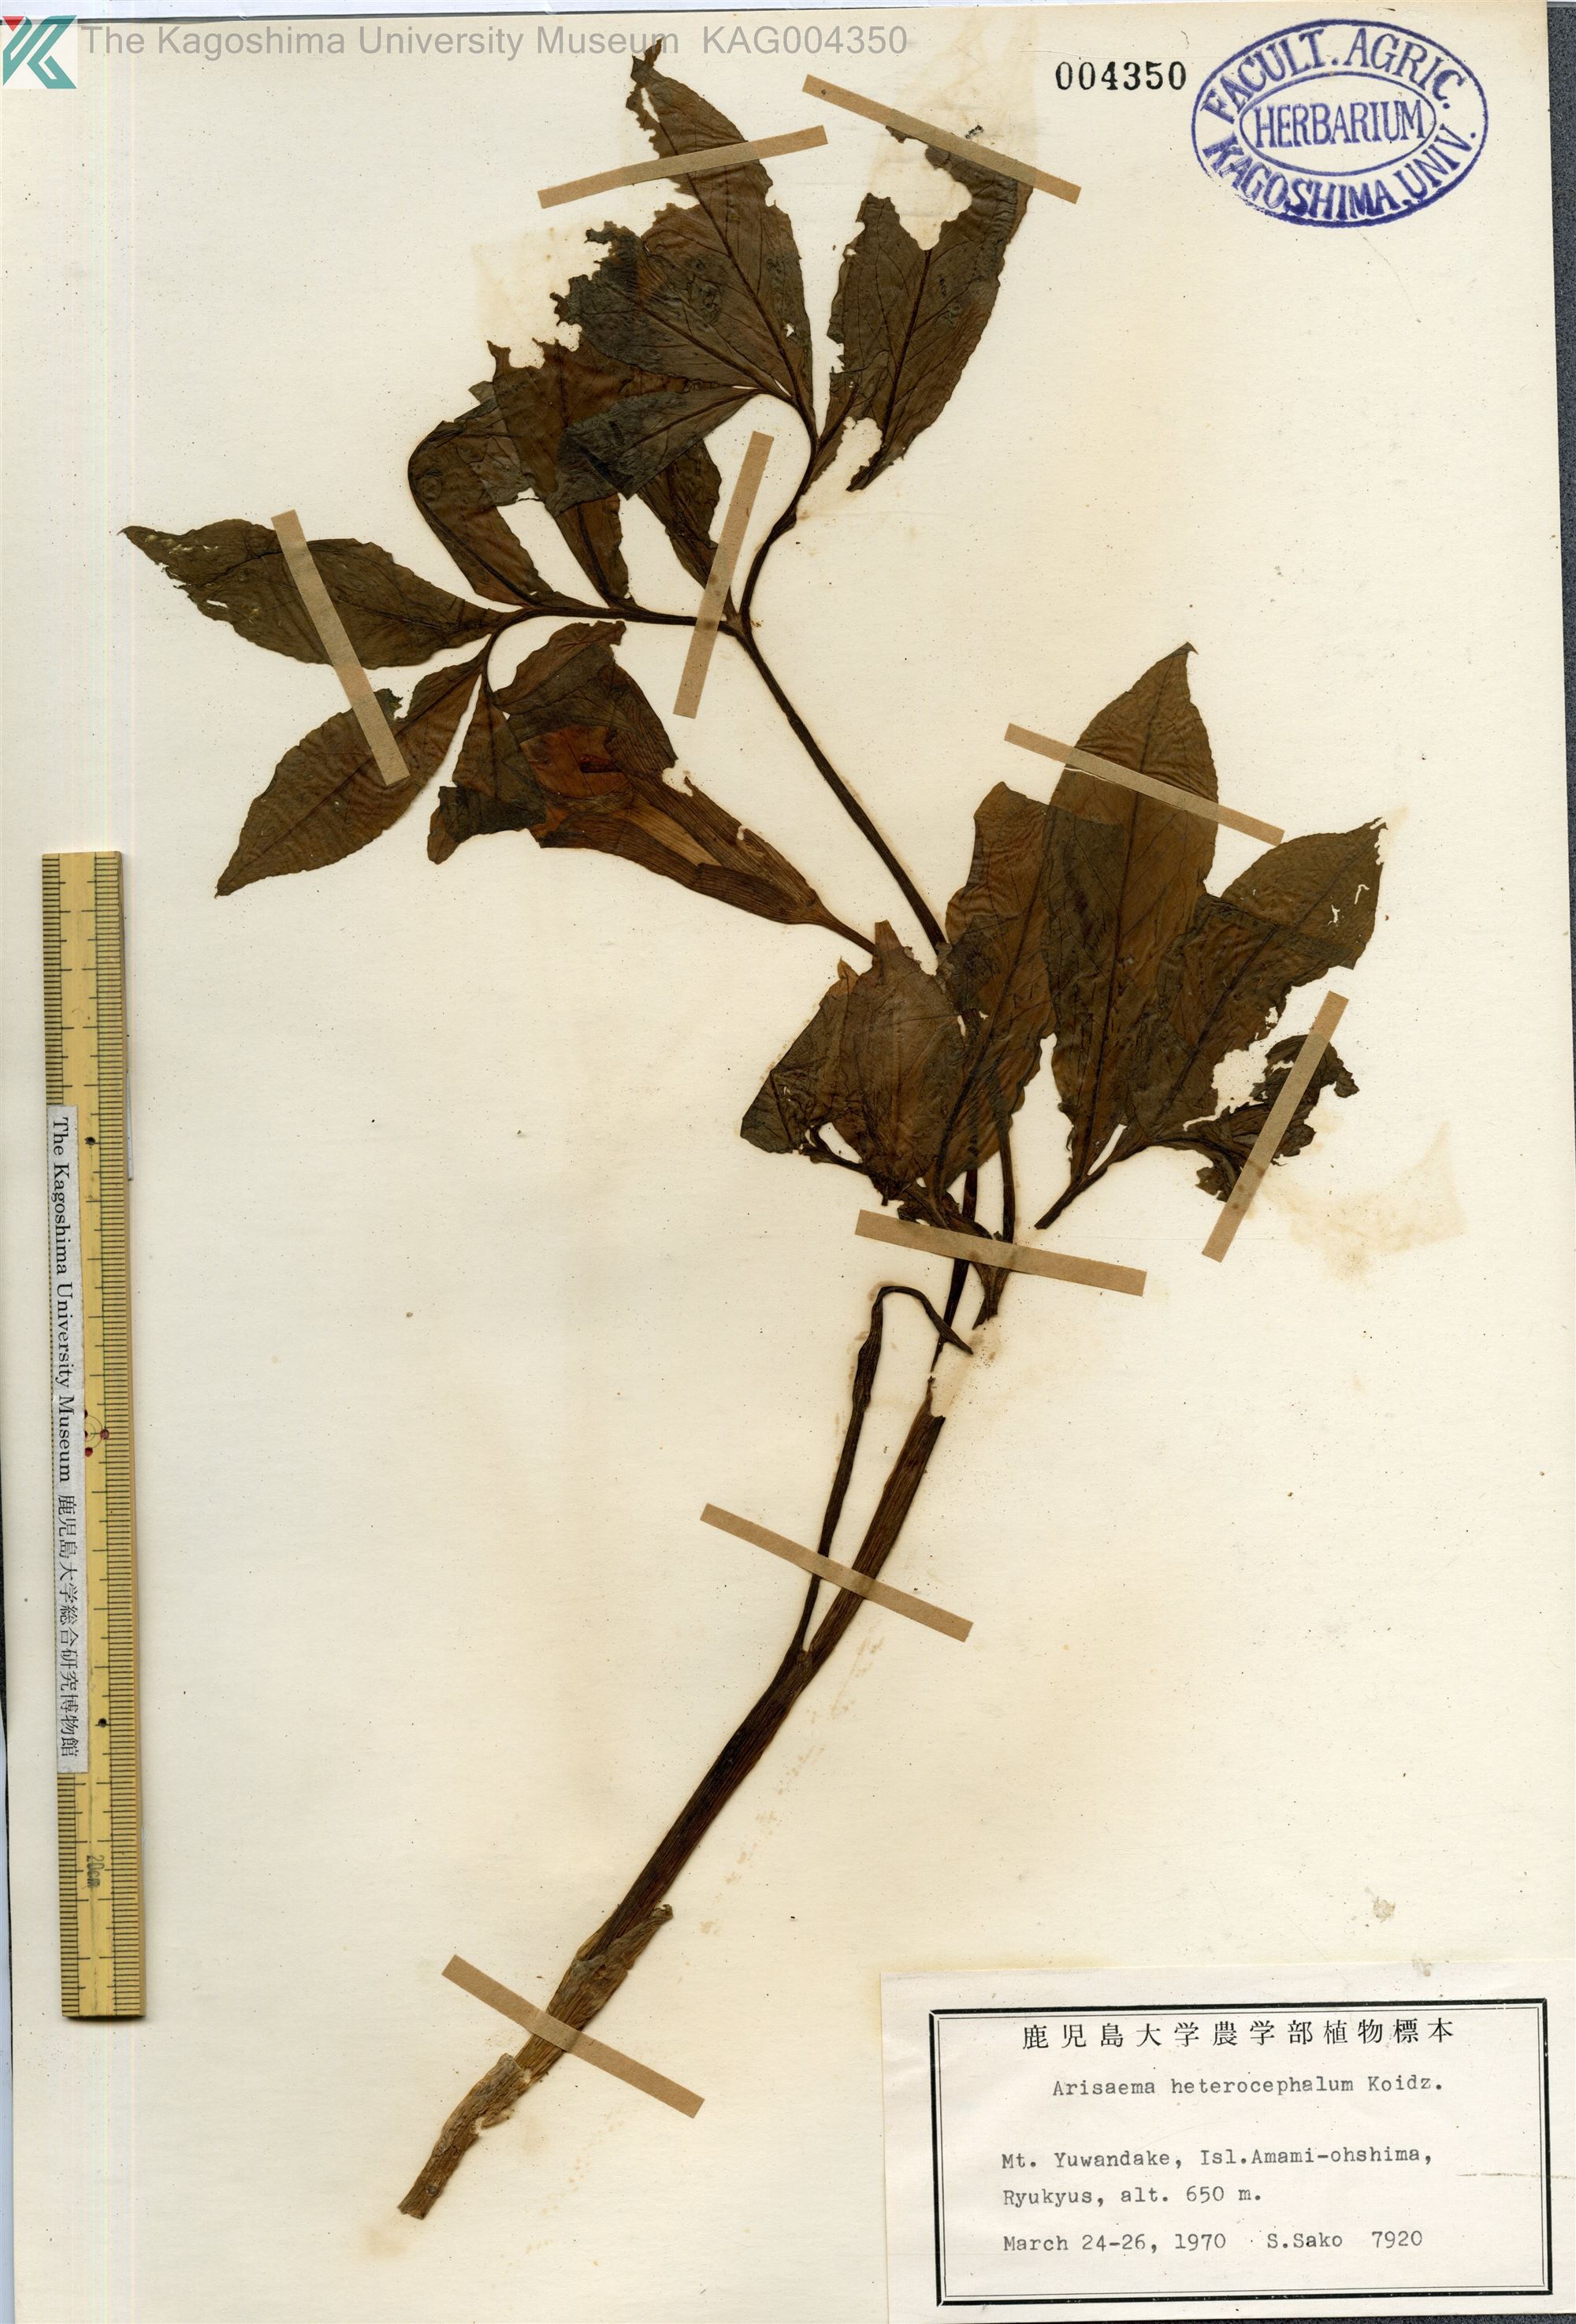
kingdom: Plantae
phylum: Tracheophyta
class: Liliopsida
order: Alismatales
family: Araceae
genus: Arisaema
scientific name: Arisaema heterocephalum
